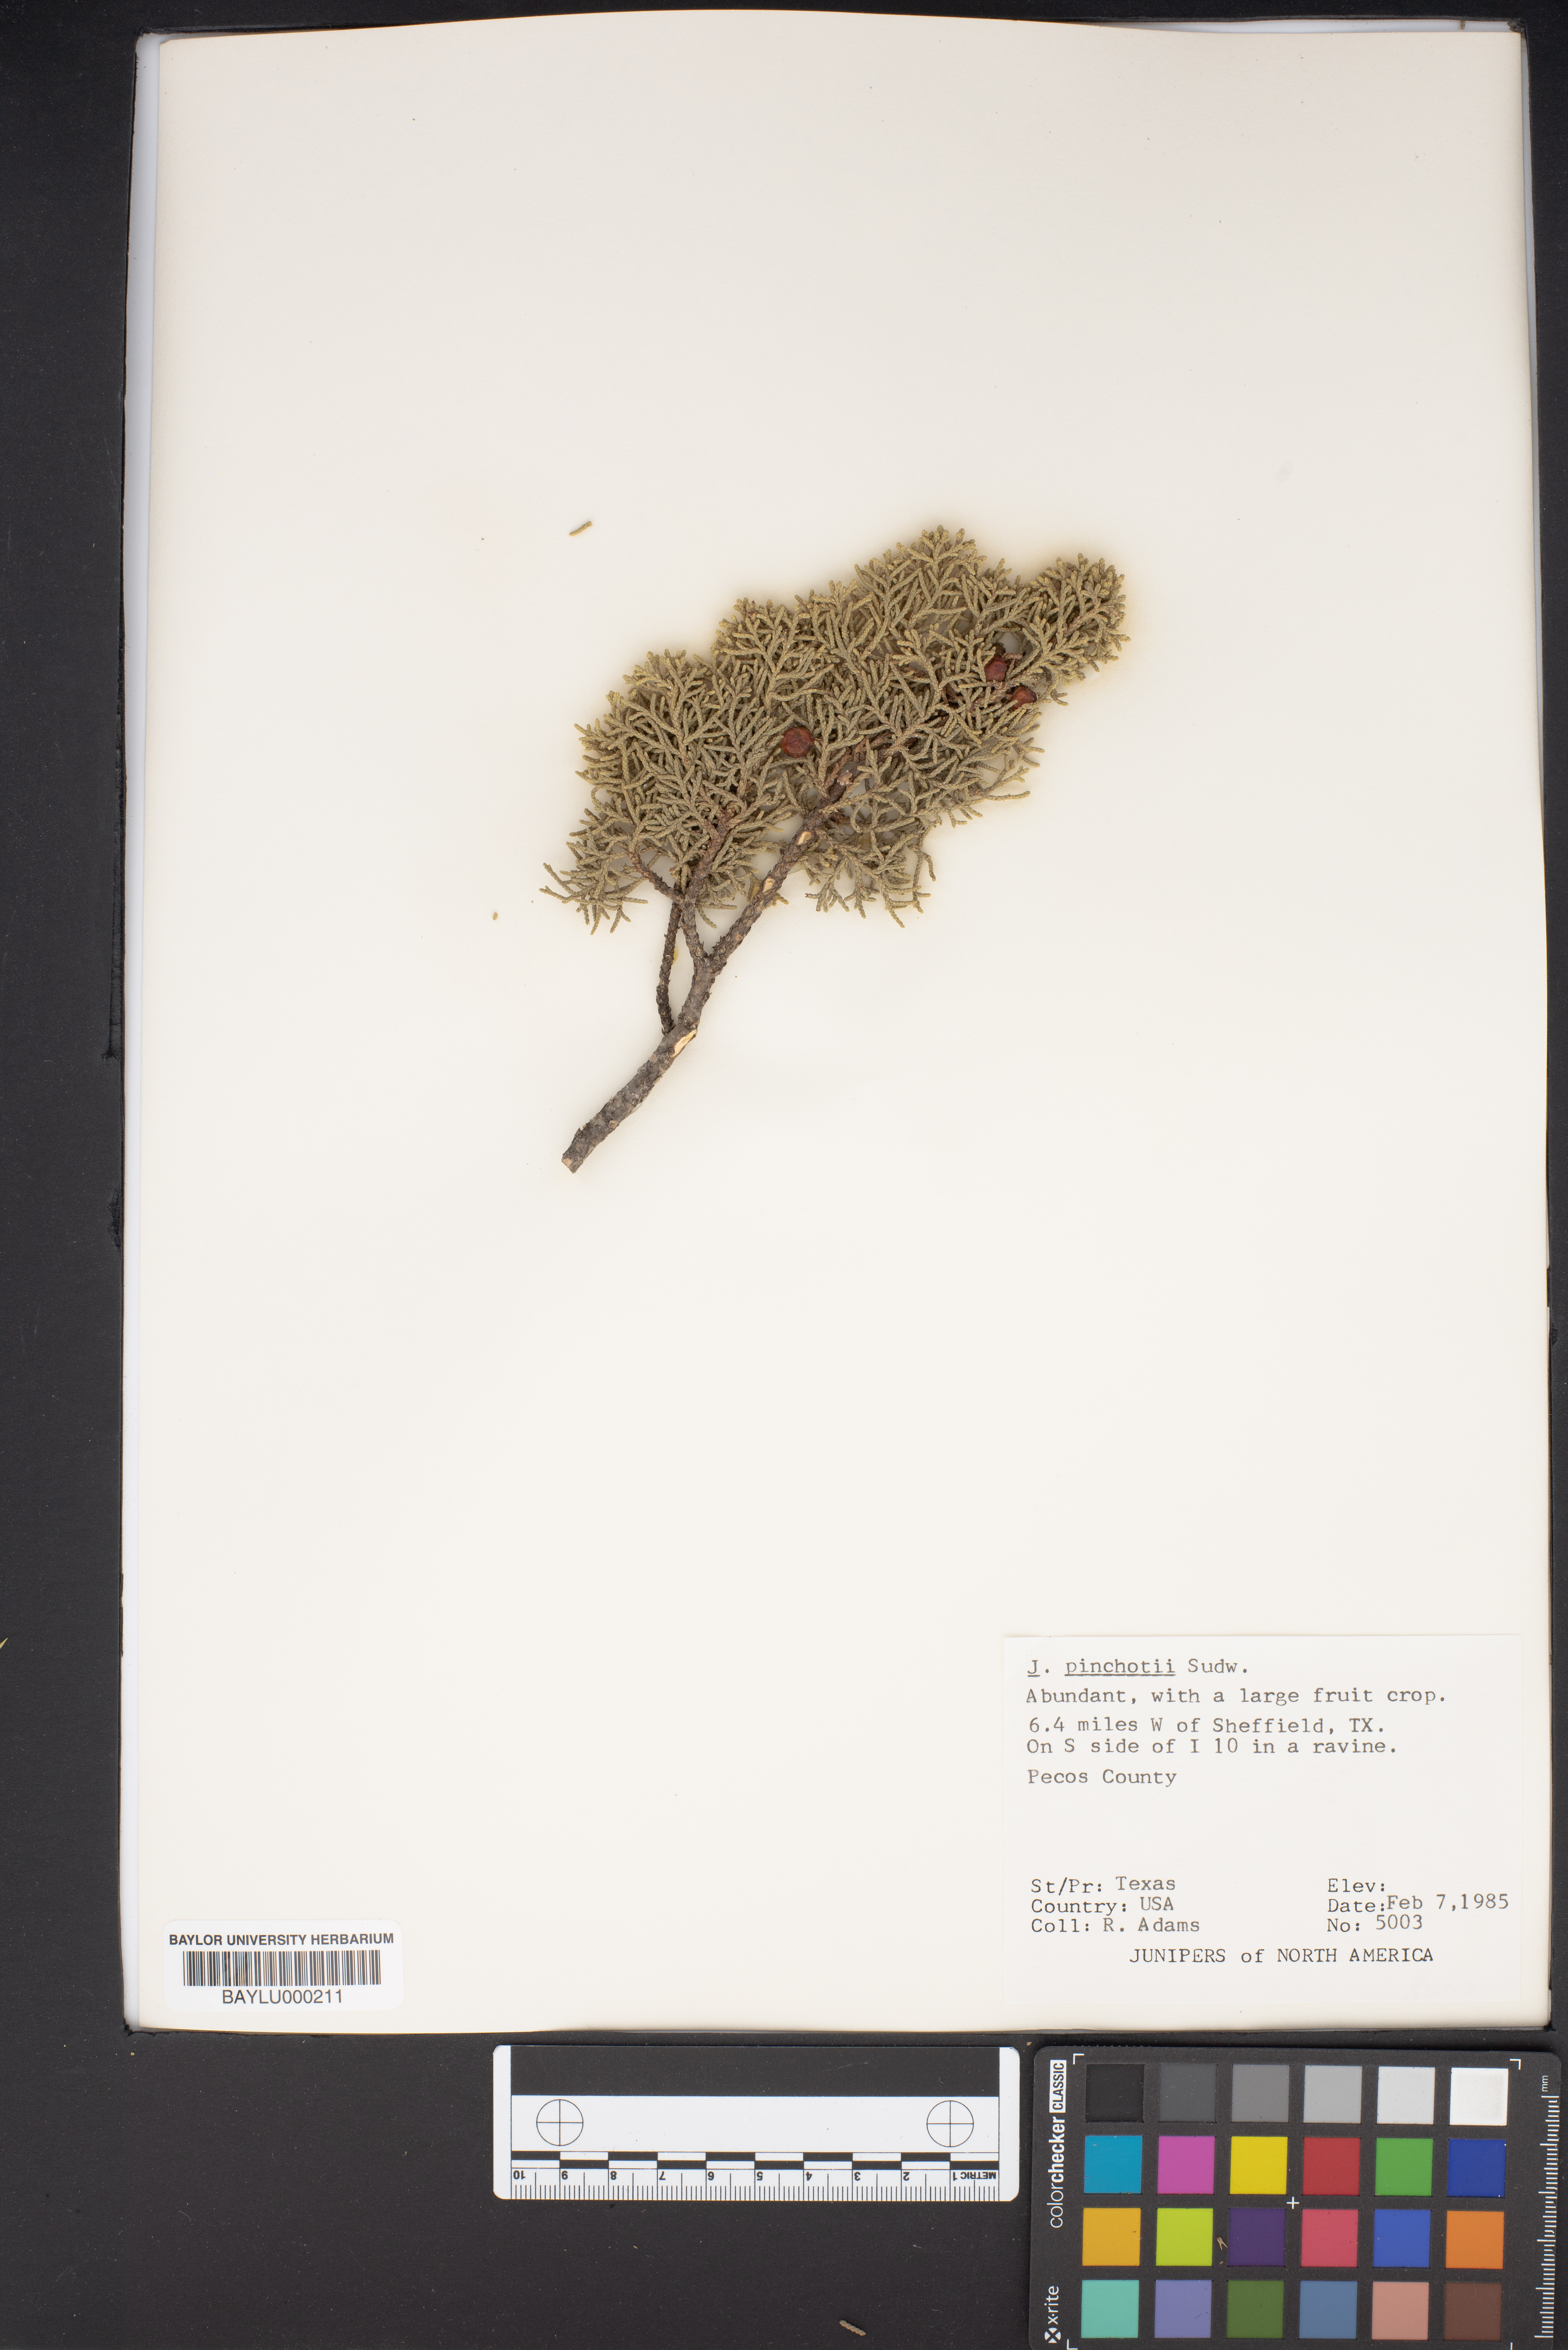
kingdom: Plantae
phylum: Tracheophyta
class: Pinopsida
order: Pinales
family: Cupressaceae
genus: Juniperus
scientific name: Juniperus pinchotii
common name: Pinchot juniper
